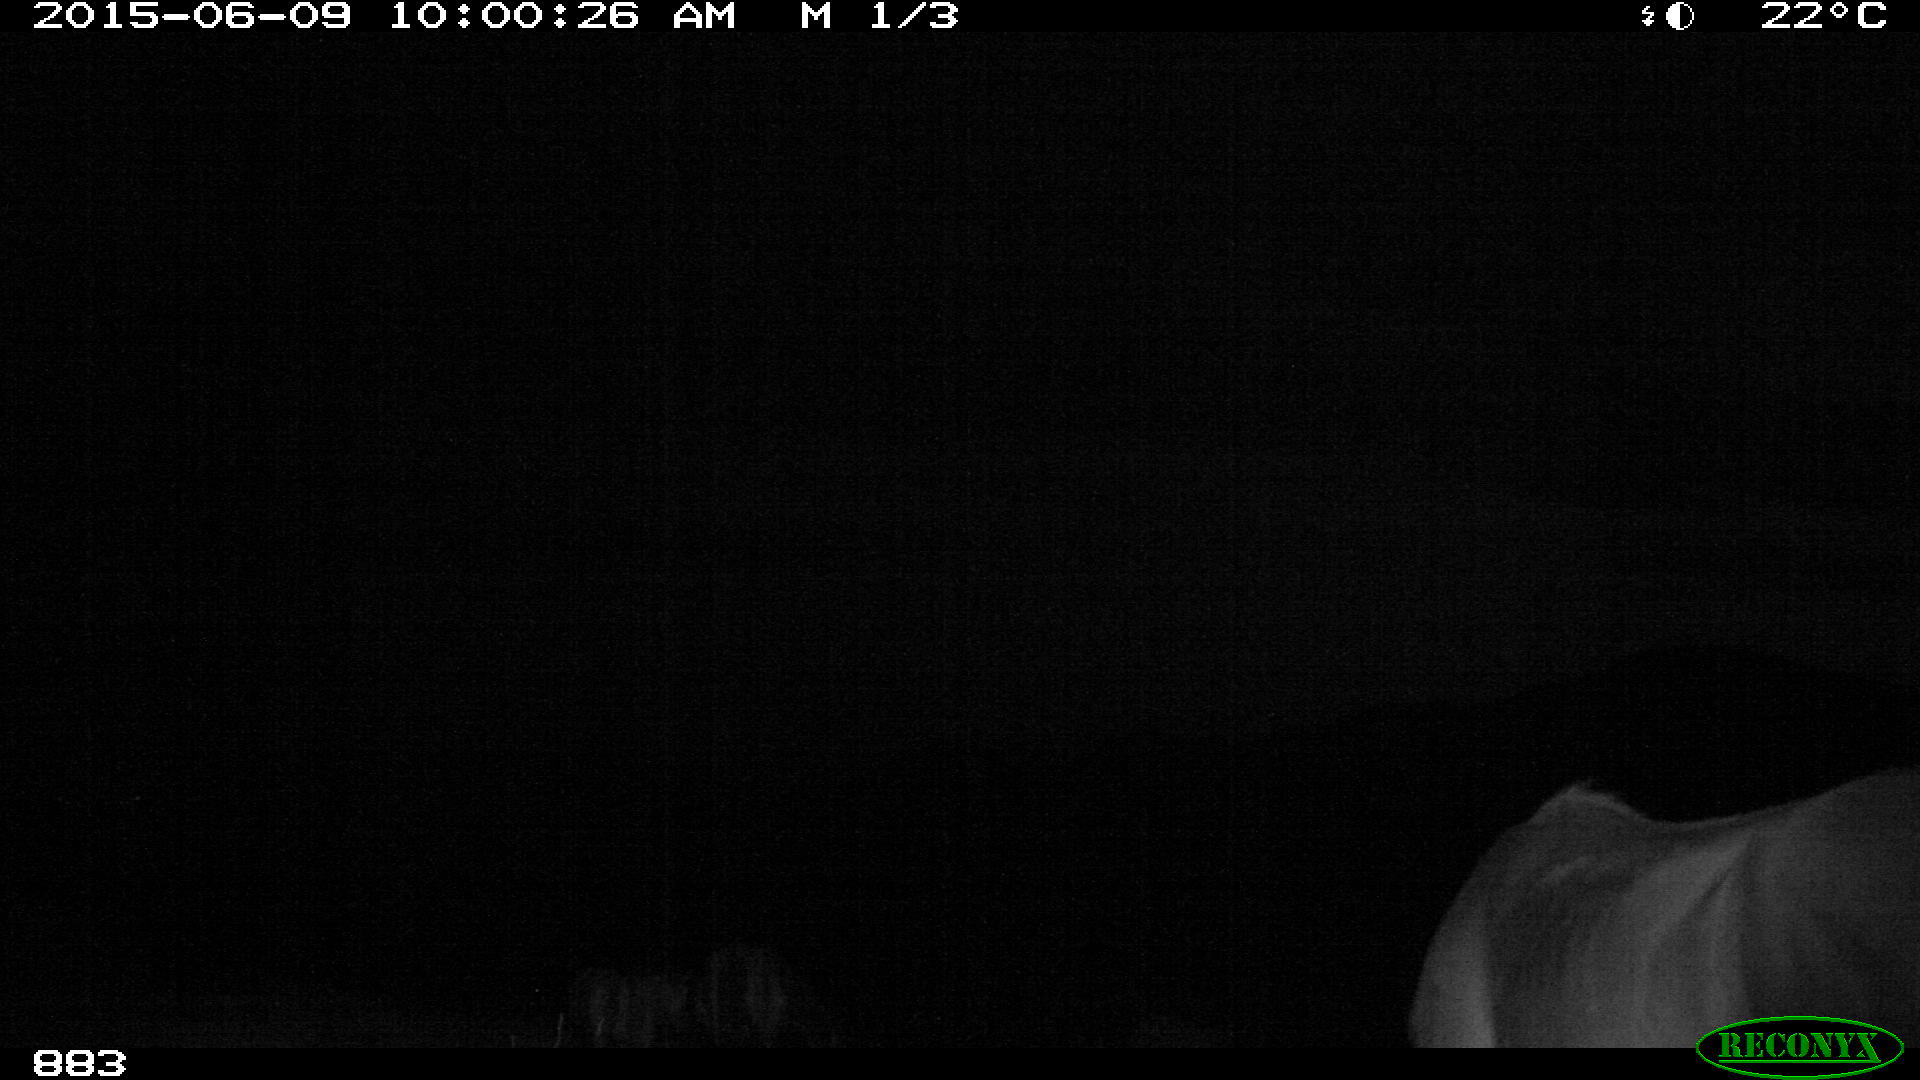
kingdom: Animalia
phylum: Chordata
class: Mammalia
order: Perissodactyla
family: Equidae
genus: Equus
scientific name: Equus caballus
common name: Horse
